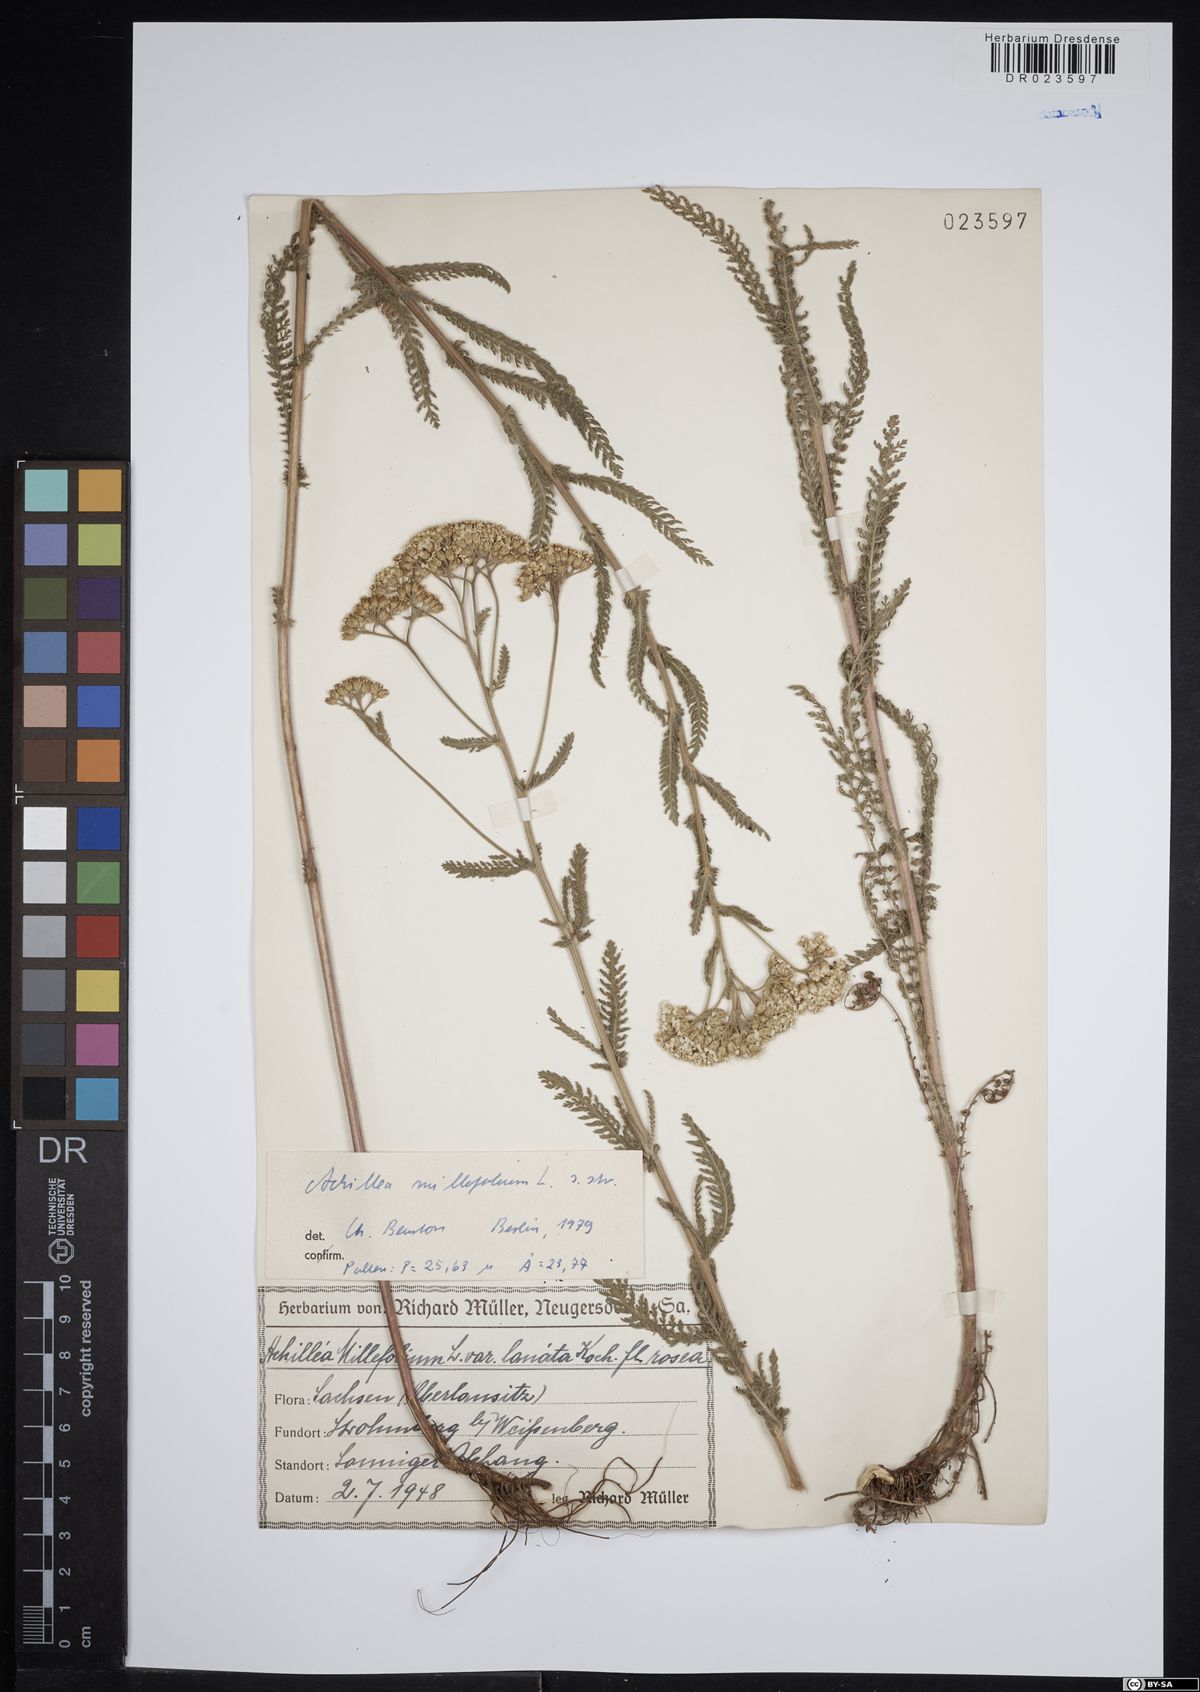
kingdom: Plantae
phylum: Tracheophyta
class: Magnoliopsida
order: Asterales
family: Asteraceae
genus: Achillea
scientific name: Achillea millefolium
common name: Yarrow
